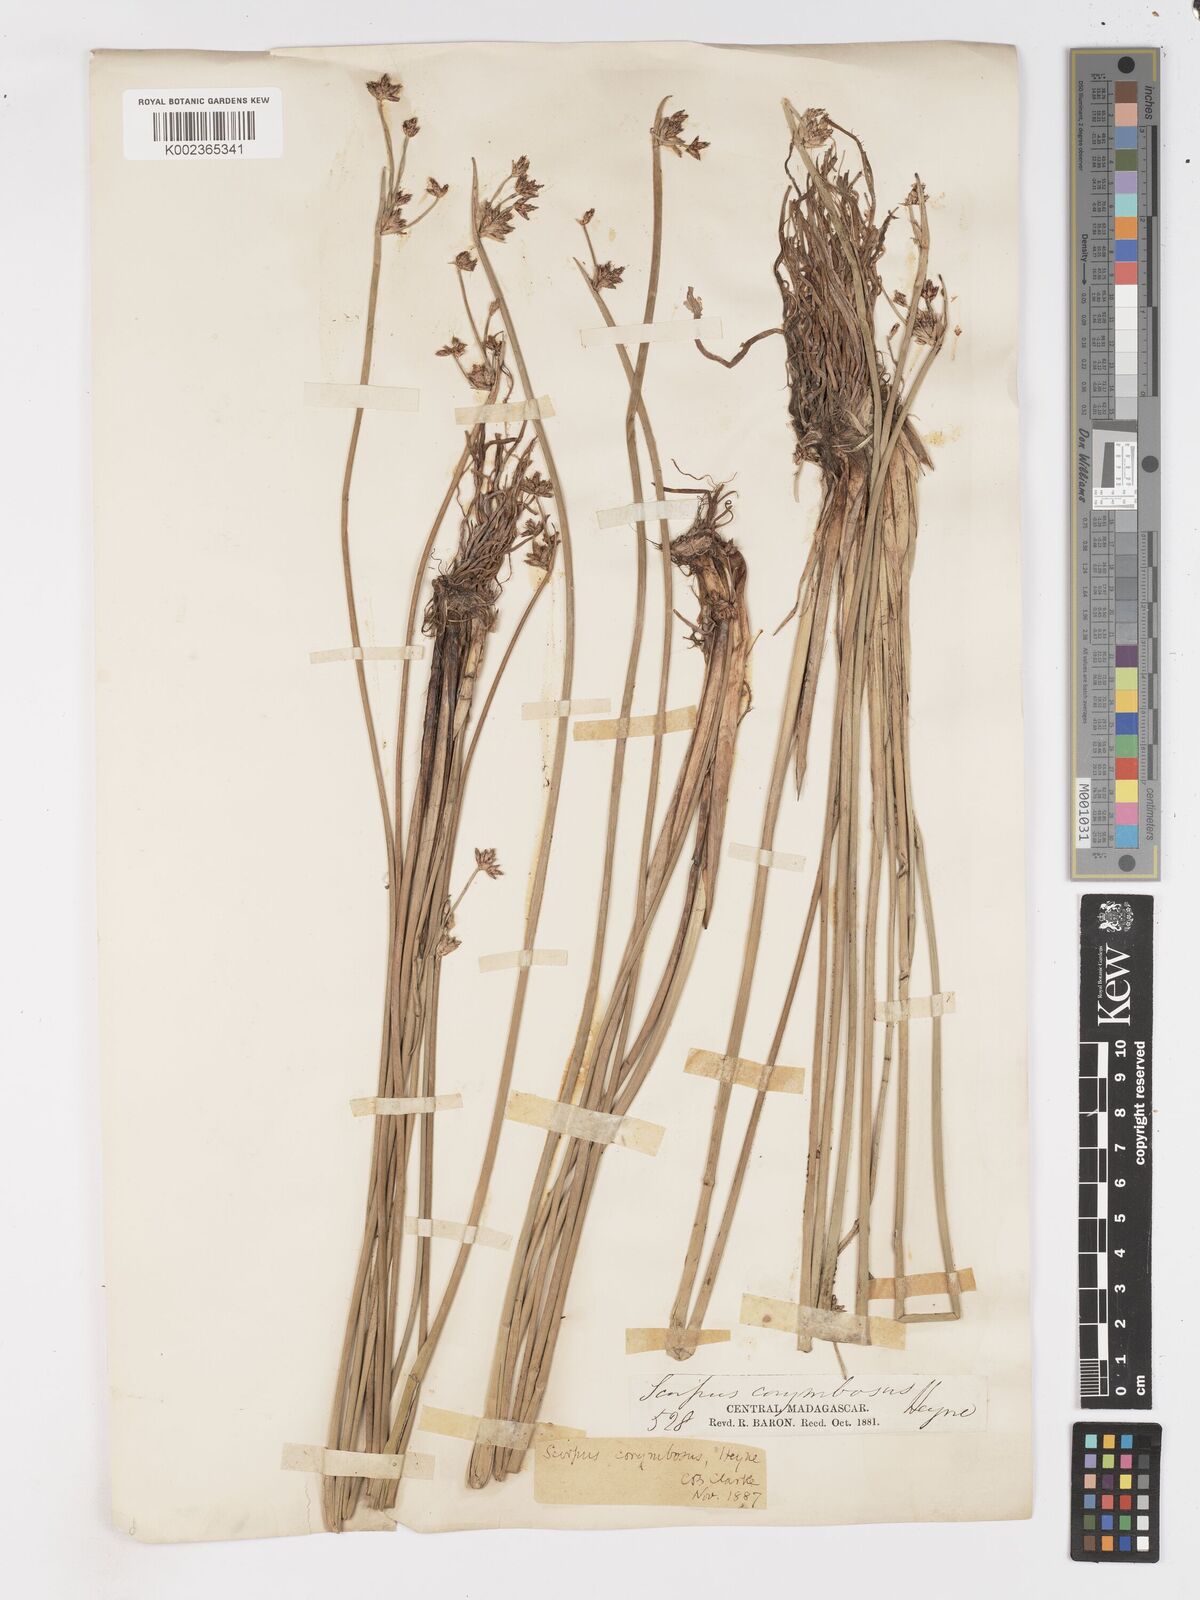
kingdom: Plantae
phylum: Tracheophyta
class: Liliopsida
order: Poales
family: Cyperaceae
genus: Schoenoplectiella
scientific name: Schoenoplectiella corymbosa
